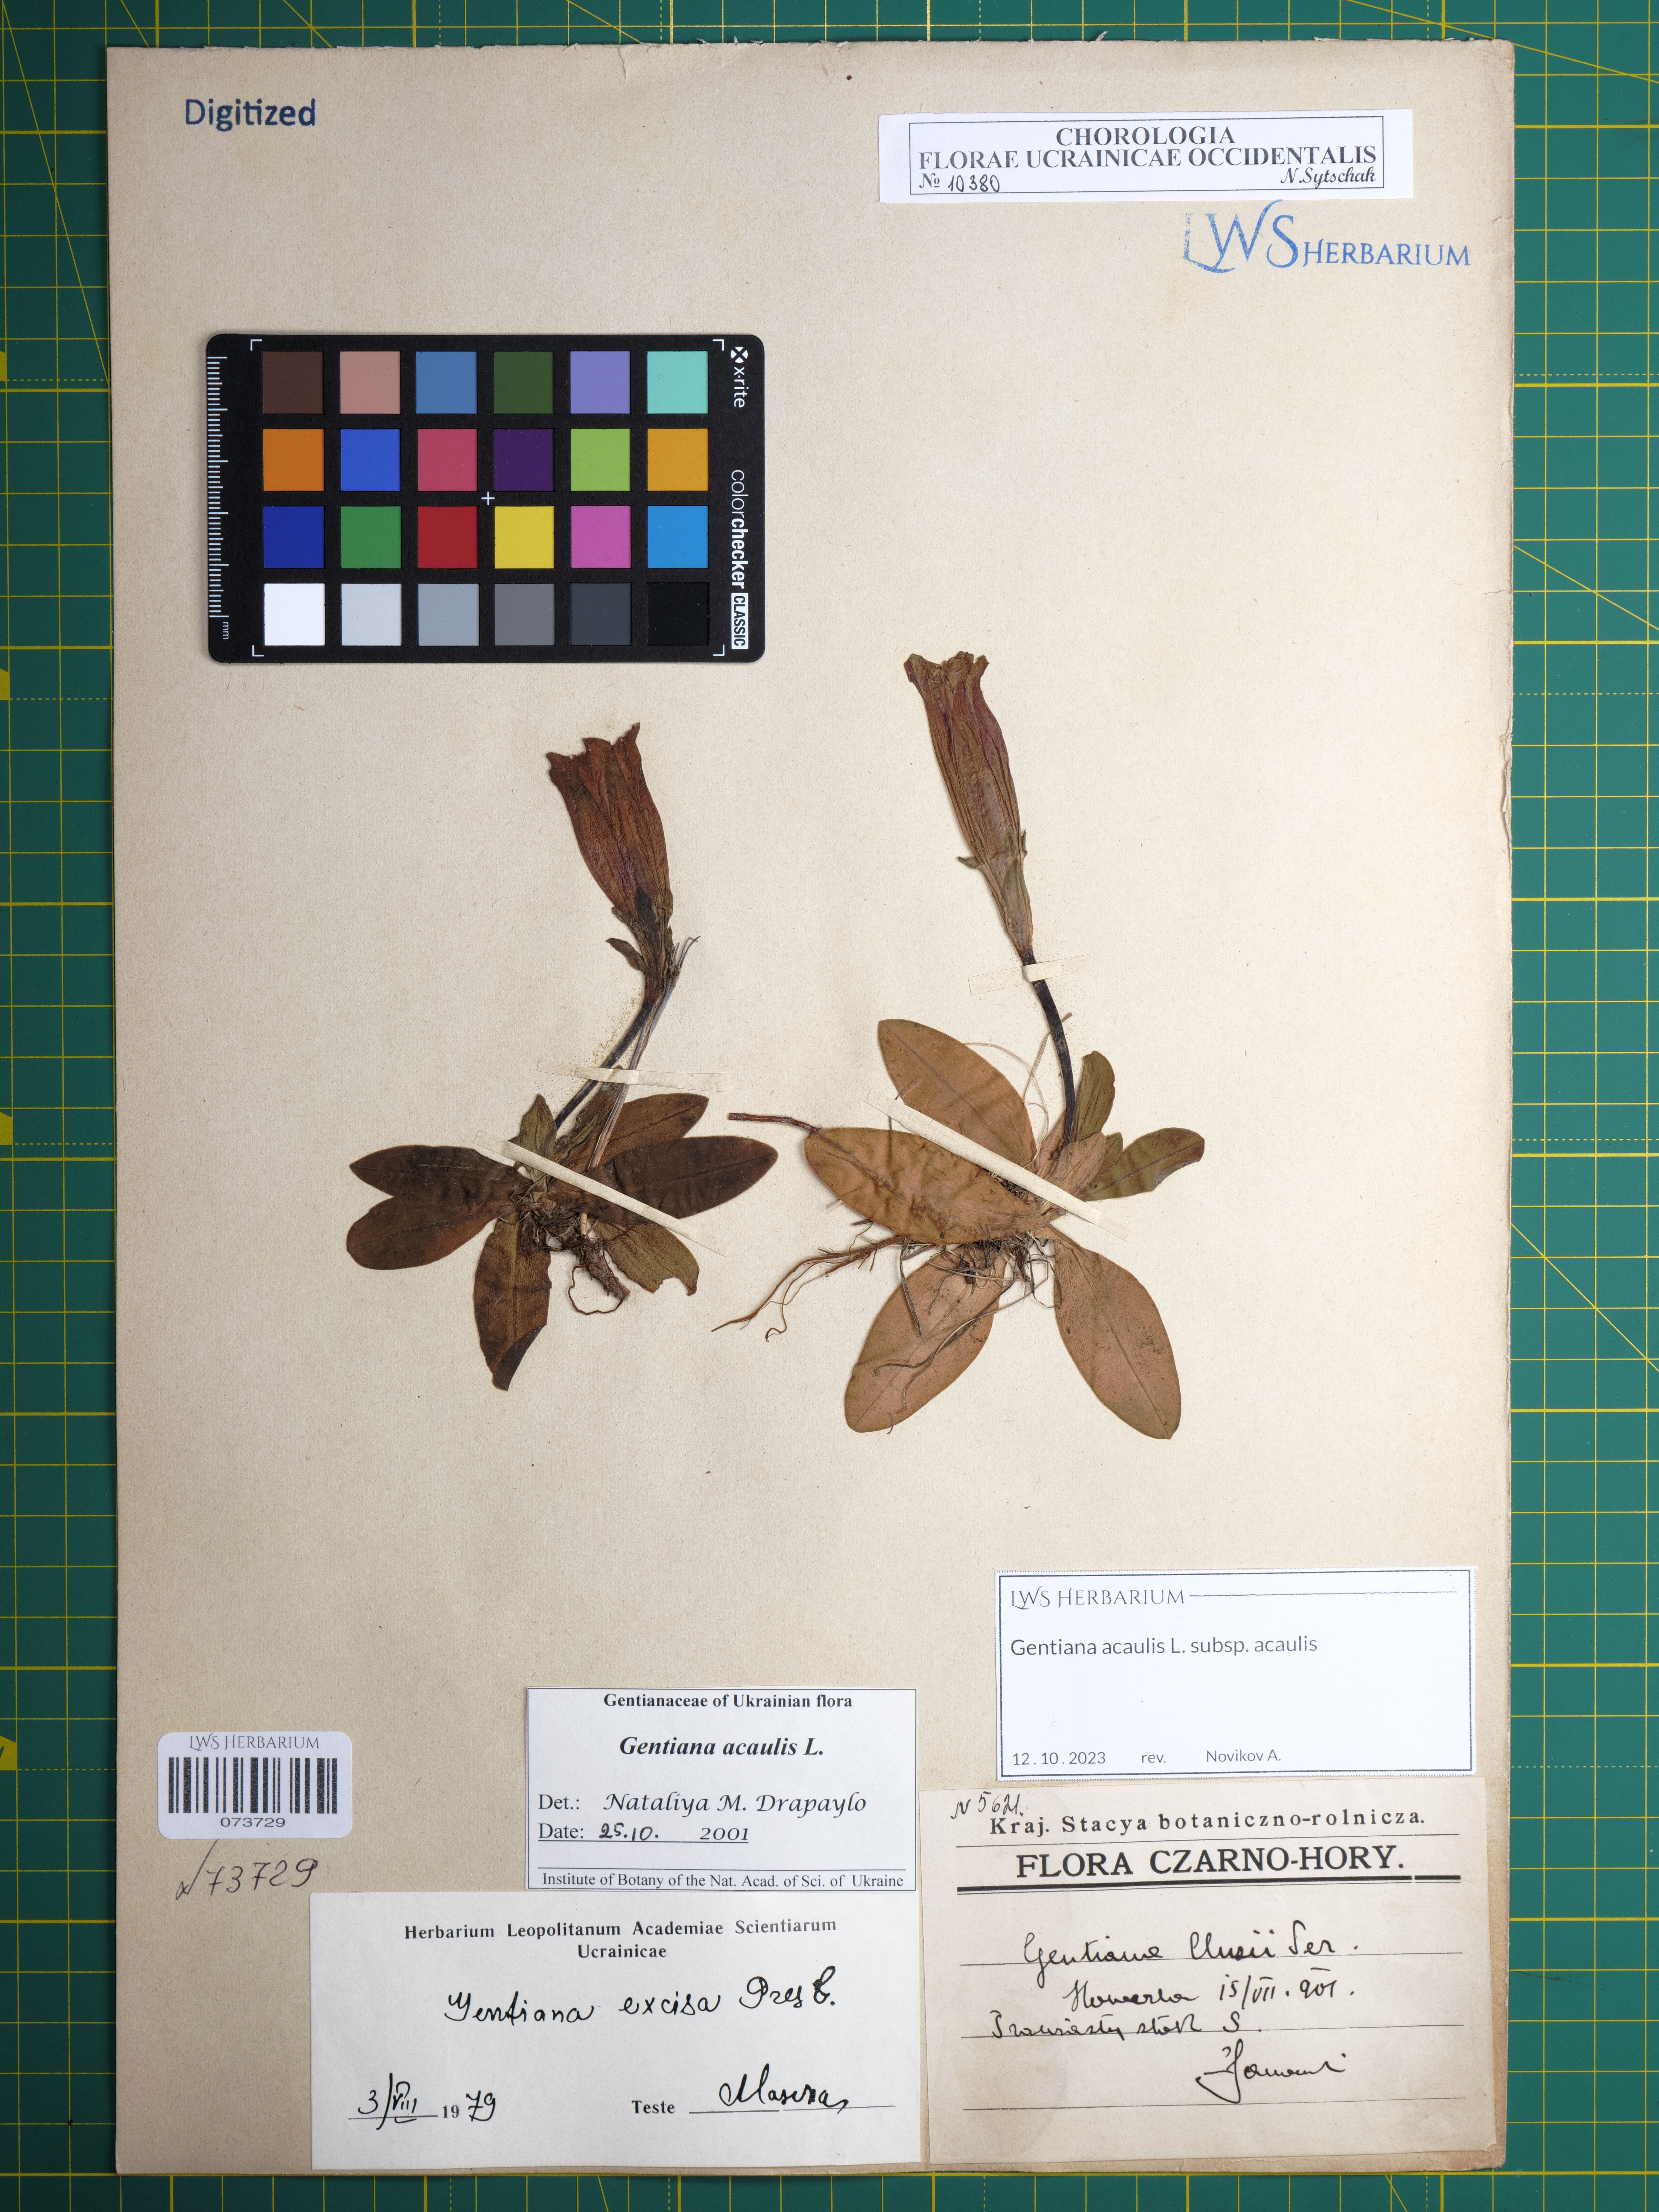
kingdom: Plantae
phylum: Tracheophyta
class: Magnoliopsida
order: Gentianales
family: Gentianaceae
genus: Gentiana
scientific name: Gentiana acaulis
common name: Trumpet gentian
